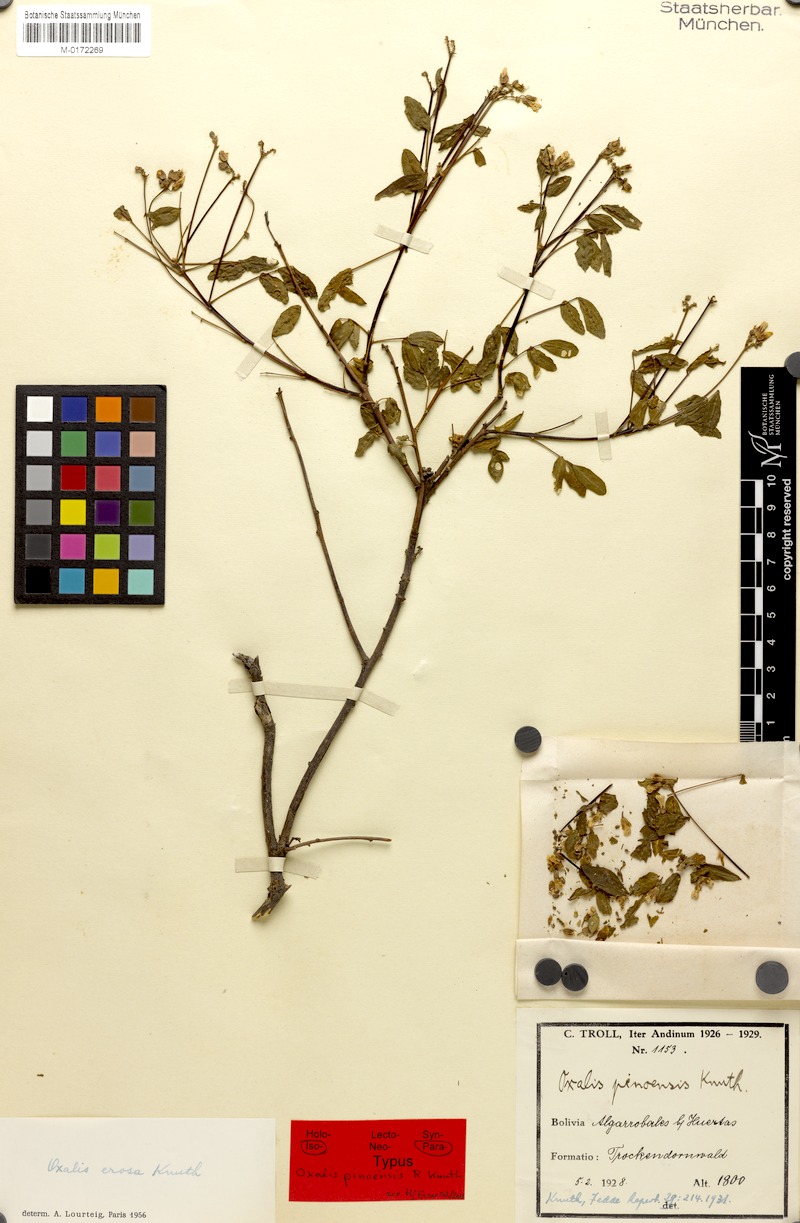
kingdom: Plantae
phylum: Tracheophyta
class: Magnoliopsida
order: Oxalidales
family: Oxalidaceae
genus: Oxalis
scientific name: Oxalis erosa
